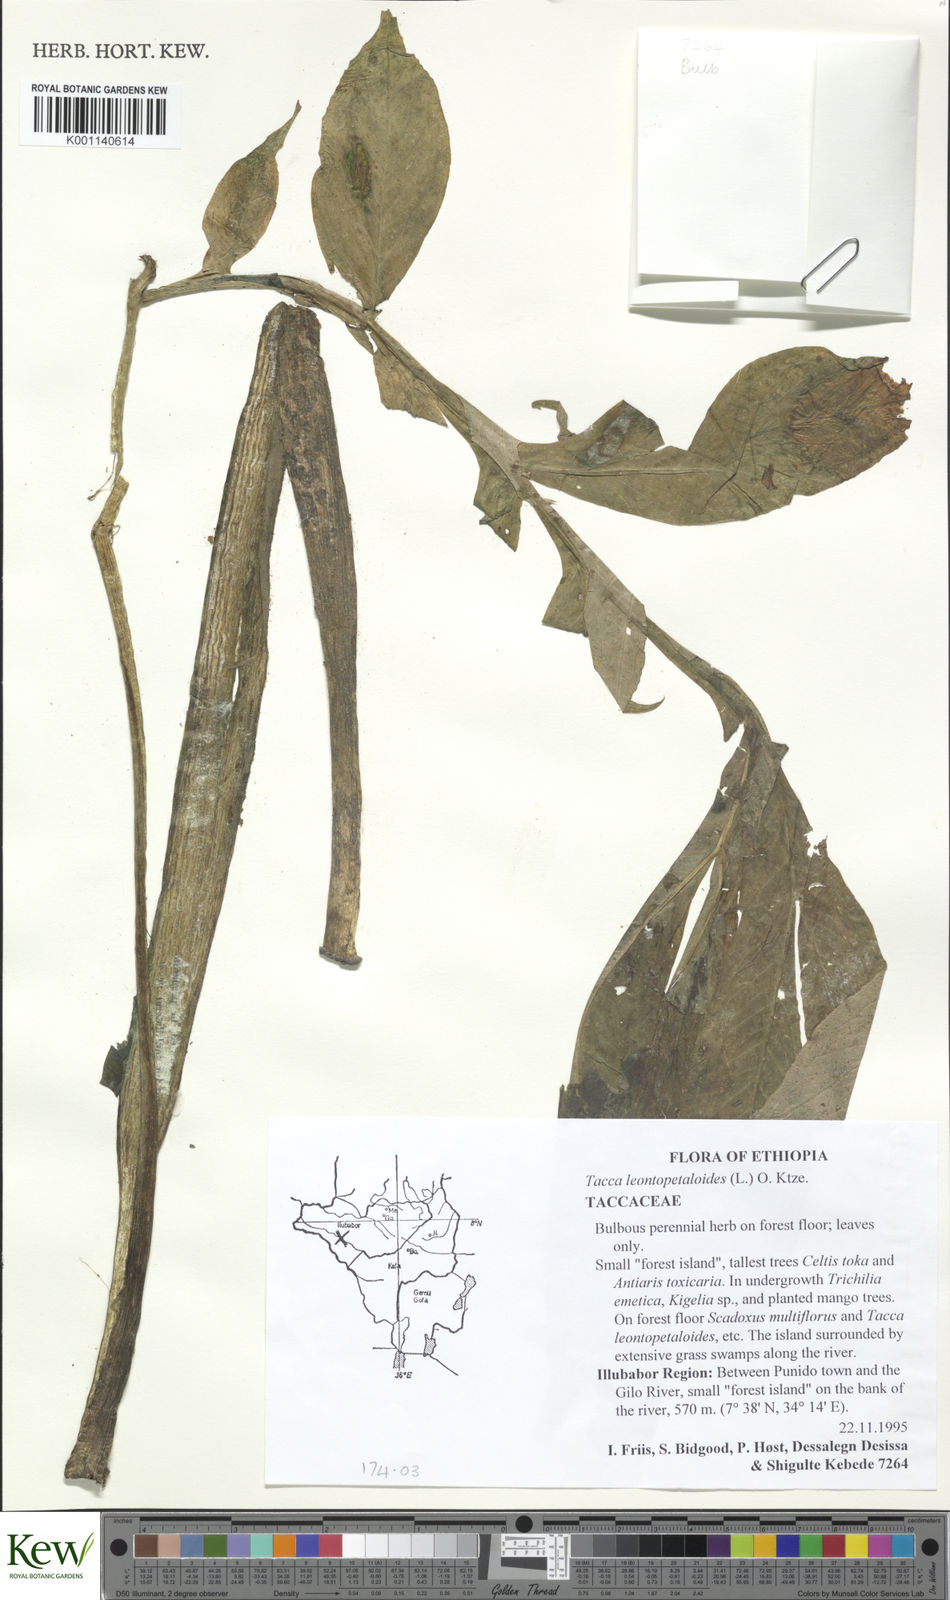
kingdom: Plantae
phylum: Tracheophyta
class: Liliopsida
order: Dioscoreales
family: Dioscoreaceae
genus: Tacca
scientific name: Tacca leontopetaloides
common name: Arrowroot
